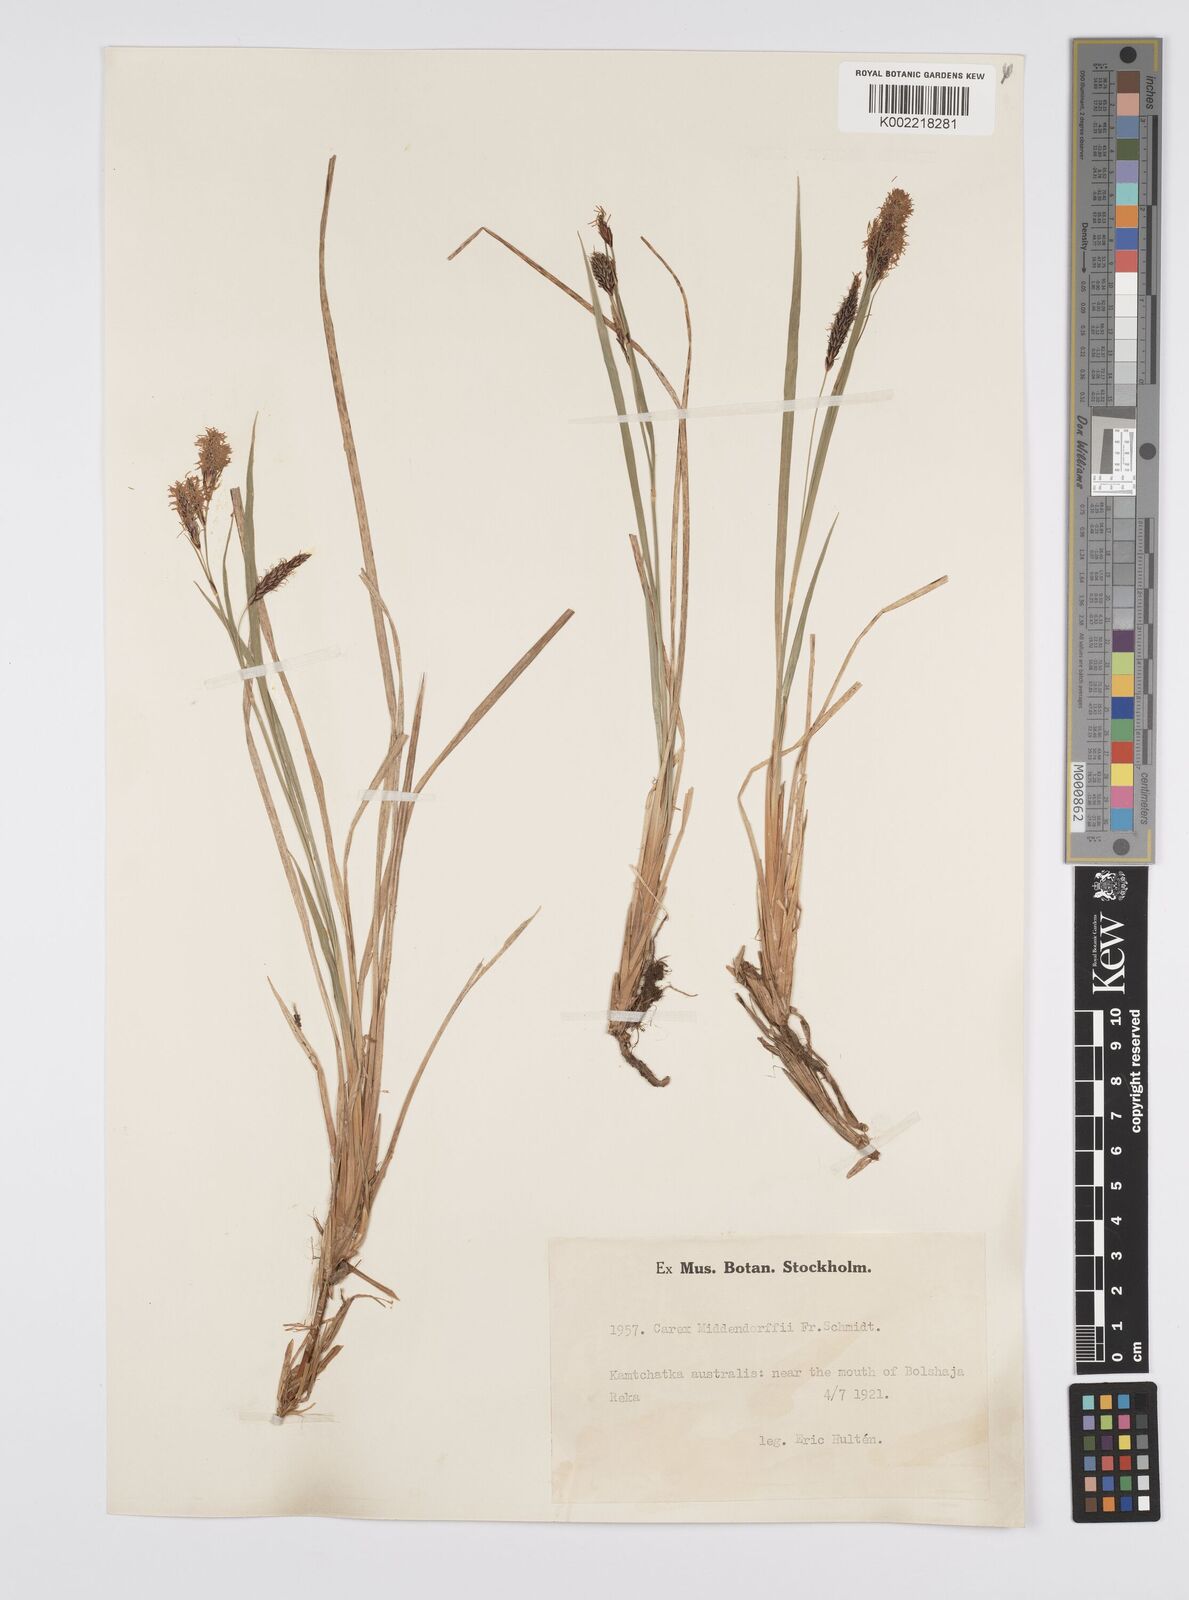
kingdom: Plantae
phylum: Tracheophyta
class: Liliopsida
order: Poales
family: Cyperaceae
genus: Carex
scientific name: Carex middendorffii
